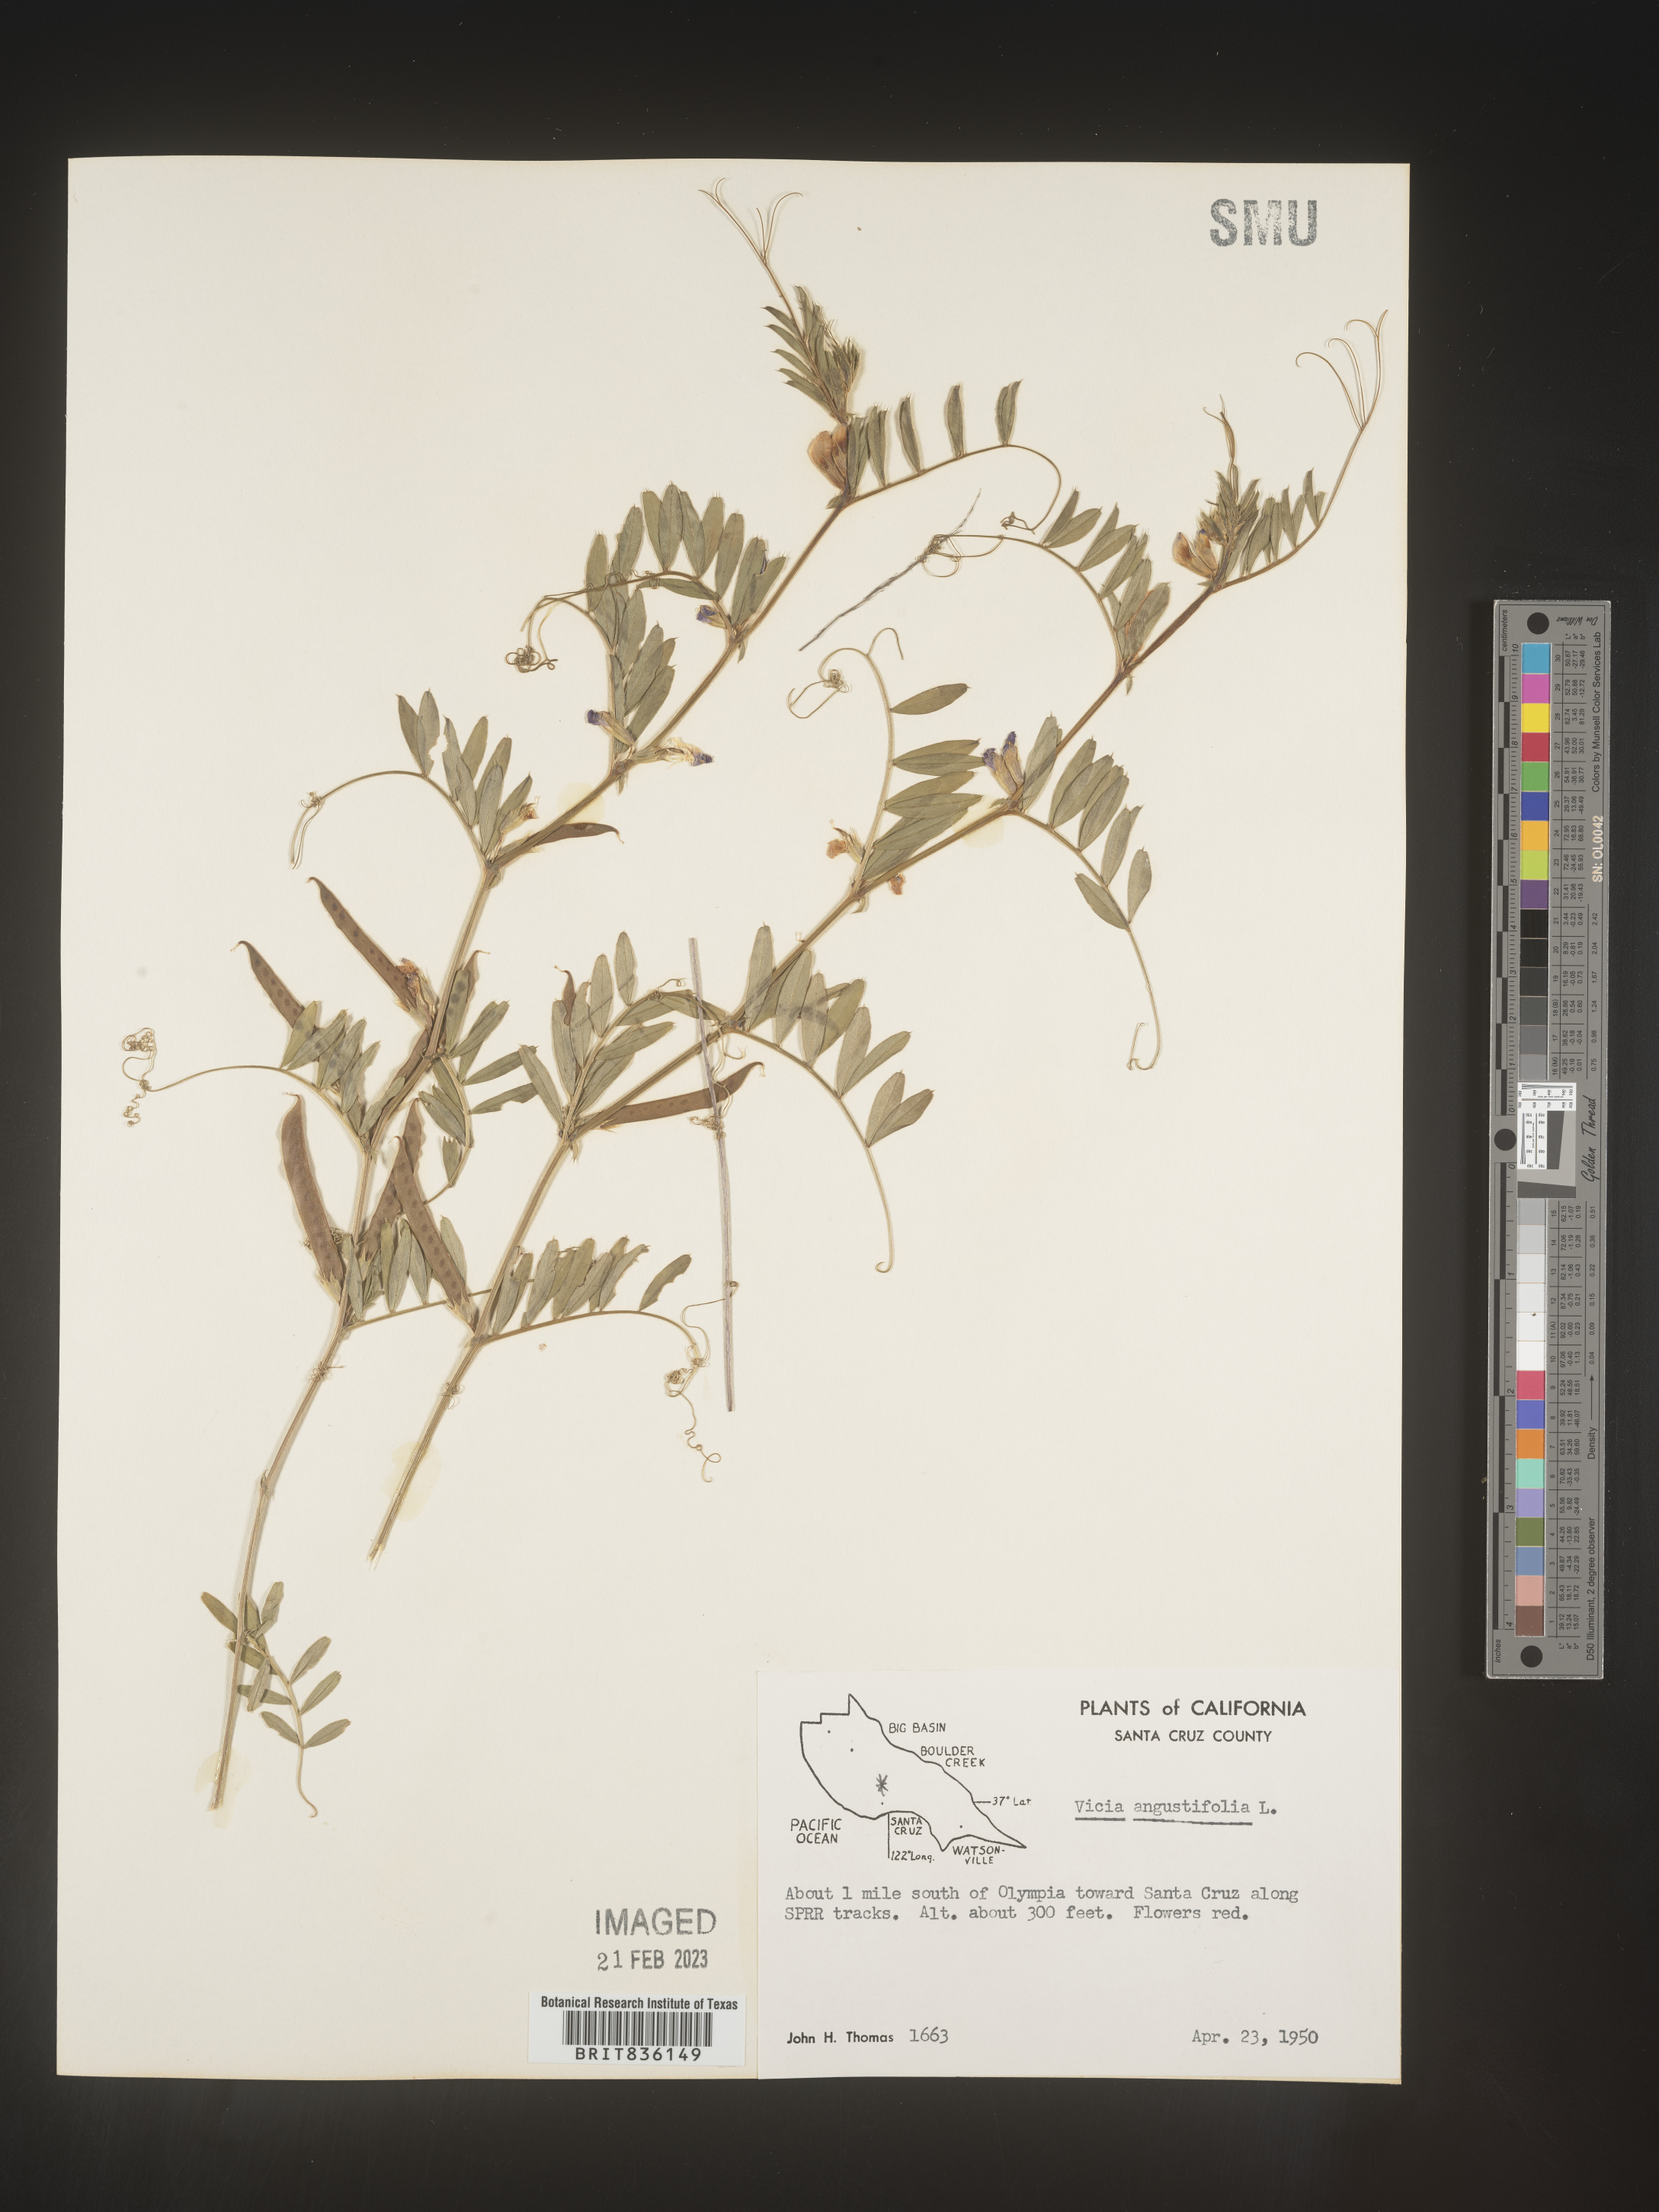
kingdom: Plantae
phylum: Tracheophyta
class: Magnoliopsida
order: Fabales
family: Fabaceae
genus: Vicia
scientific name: Vicia sativa
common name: Garden vetch
